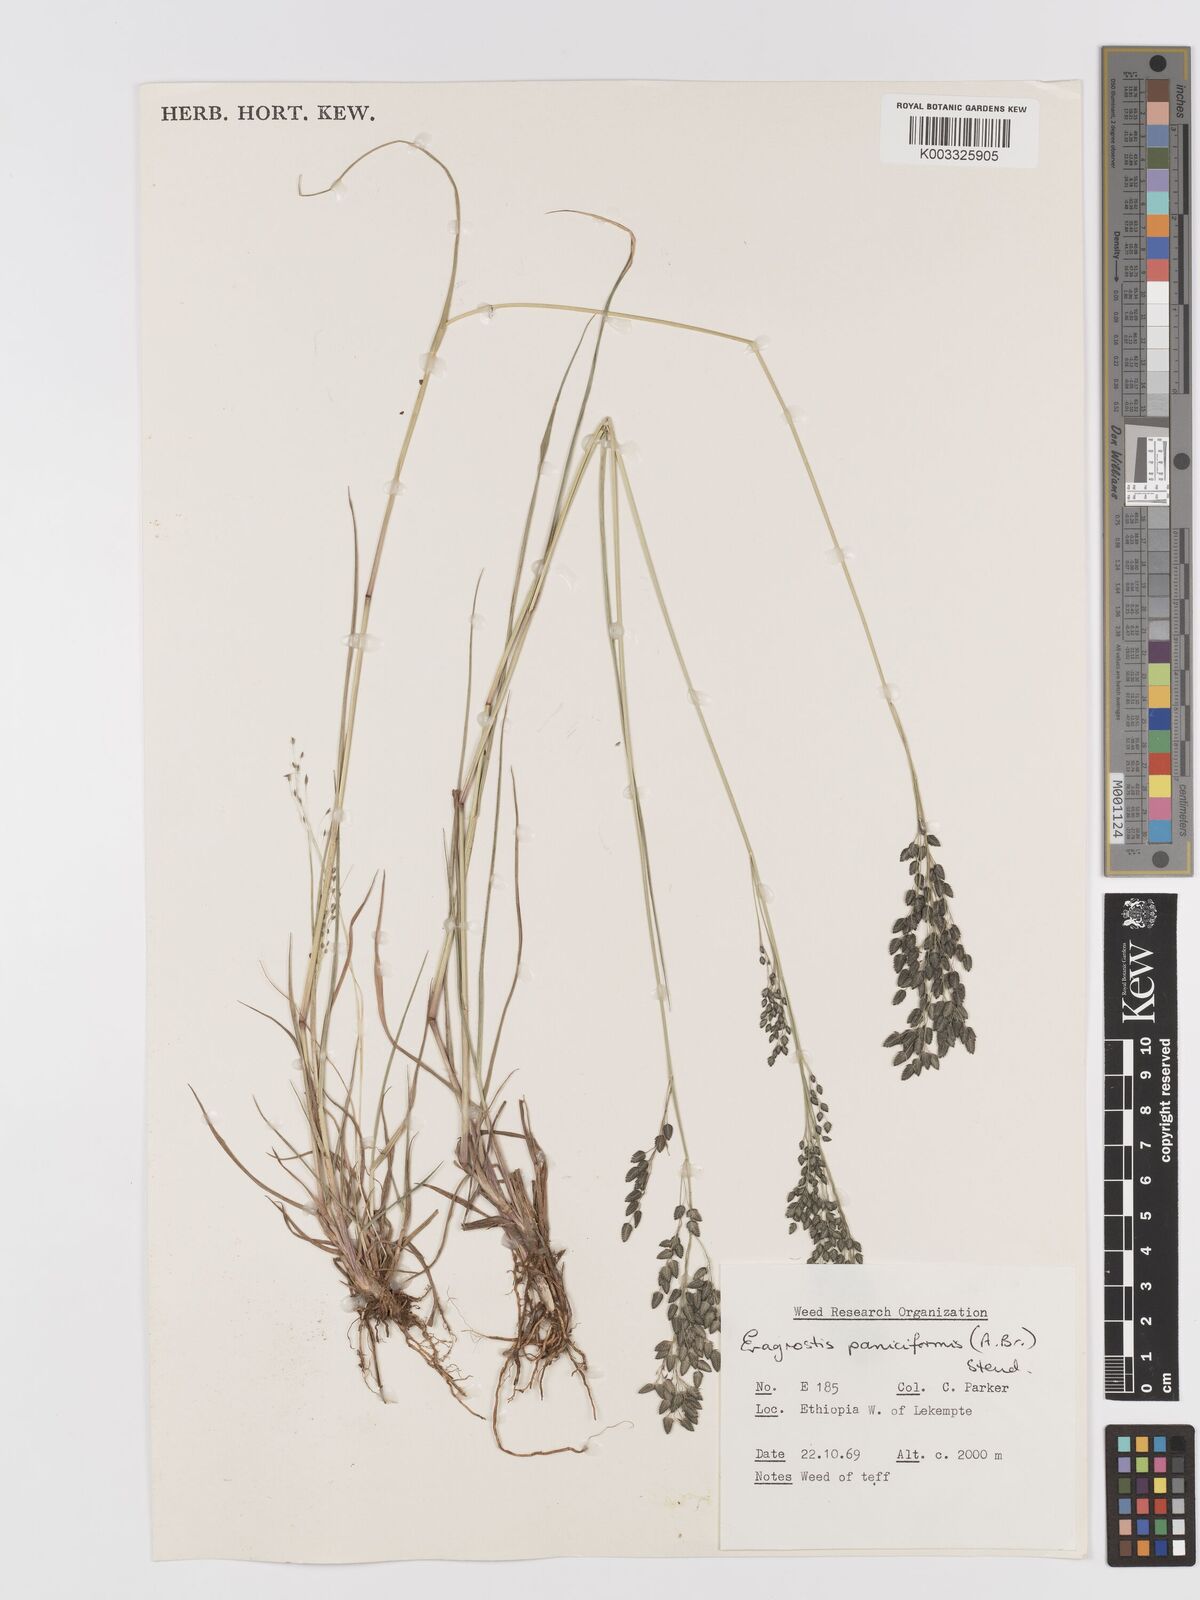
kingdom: Plantae
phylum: Tracheophyta
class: Liliopsida
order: Poales
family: Poaceae
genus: Eragrostis
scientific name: Eragrostis paniciformis
